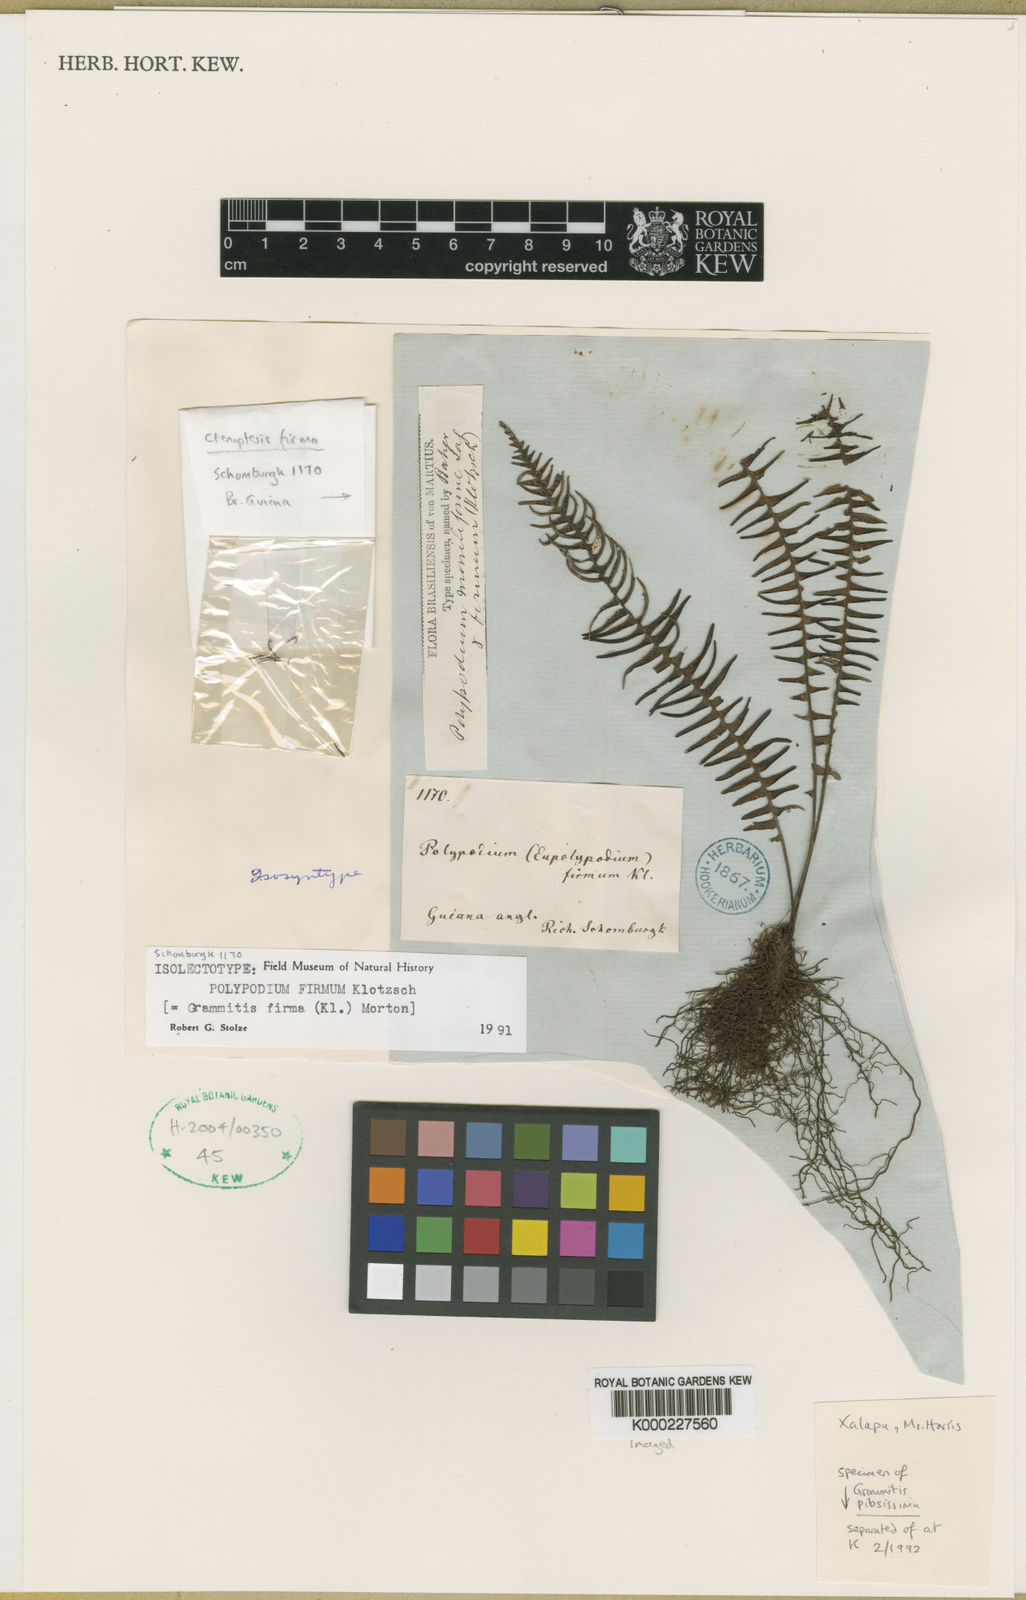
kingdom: Plantae
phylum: Tracheophyta
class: Polypodiopsida
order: Polypodiales
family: Polypodiaceae
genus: Melpomene
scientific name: Melpomene firma
